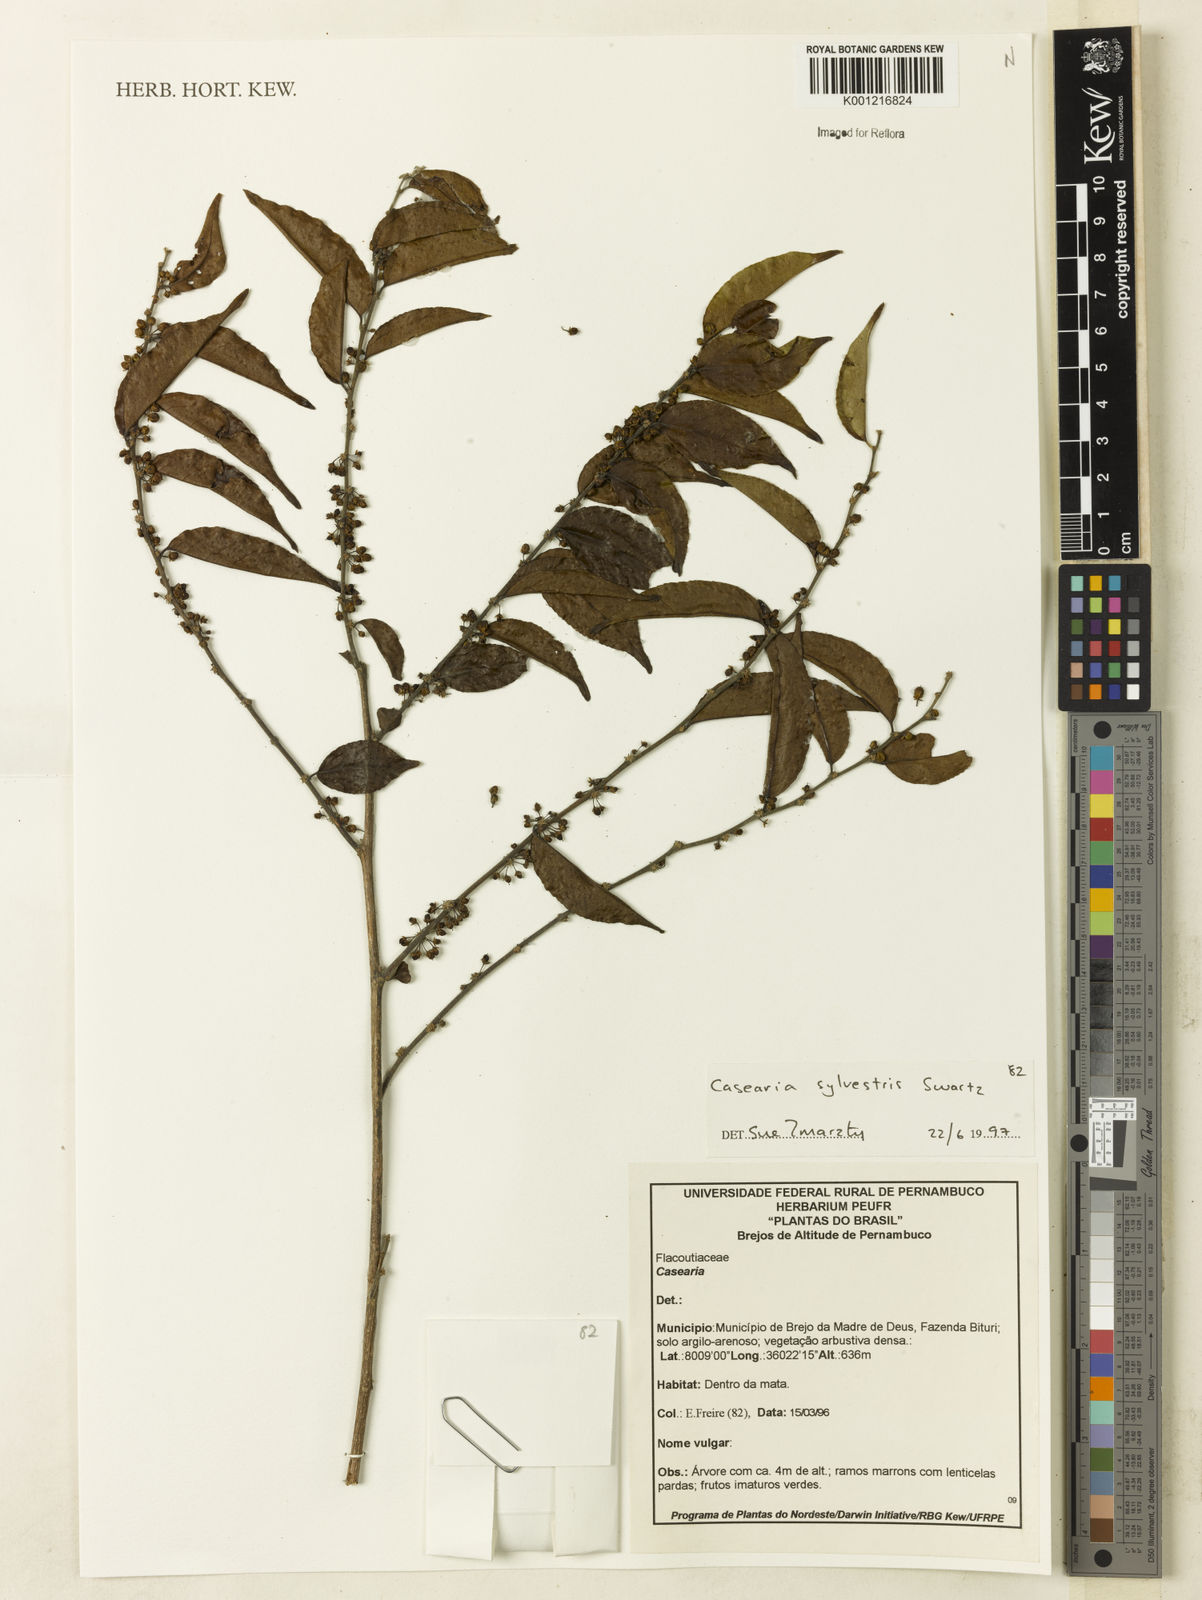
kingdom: Plantae
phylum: Tracheophyta
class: Magnoliopsida
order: Malpighiales
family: Salicaceae
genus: Casearia
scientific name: Casearia sylvestris
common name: Wild sage
